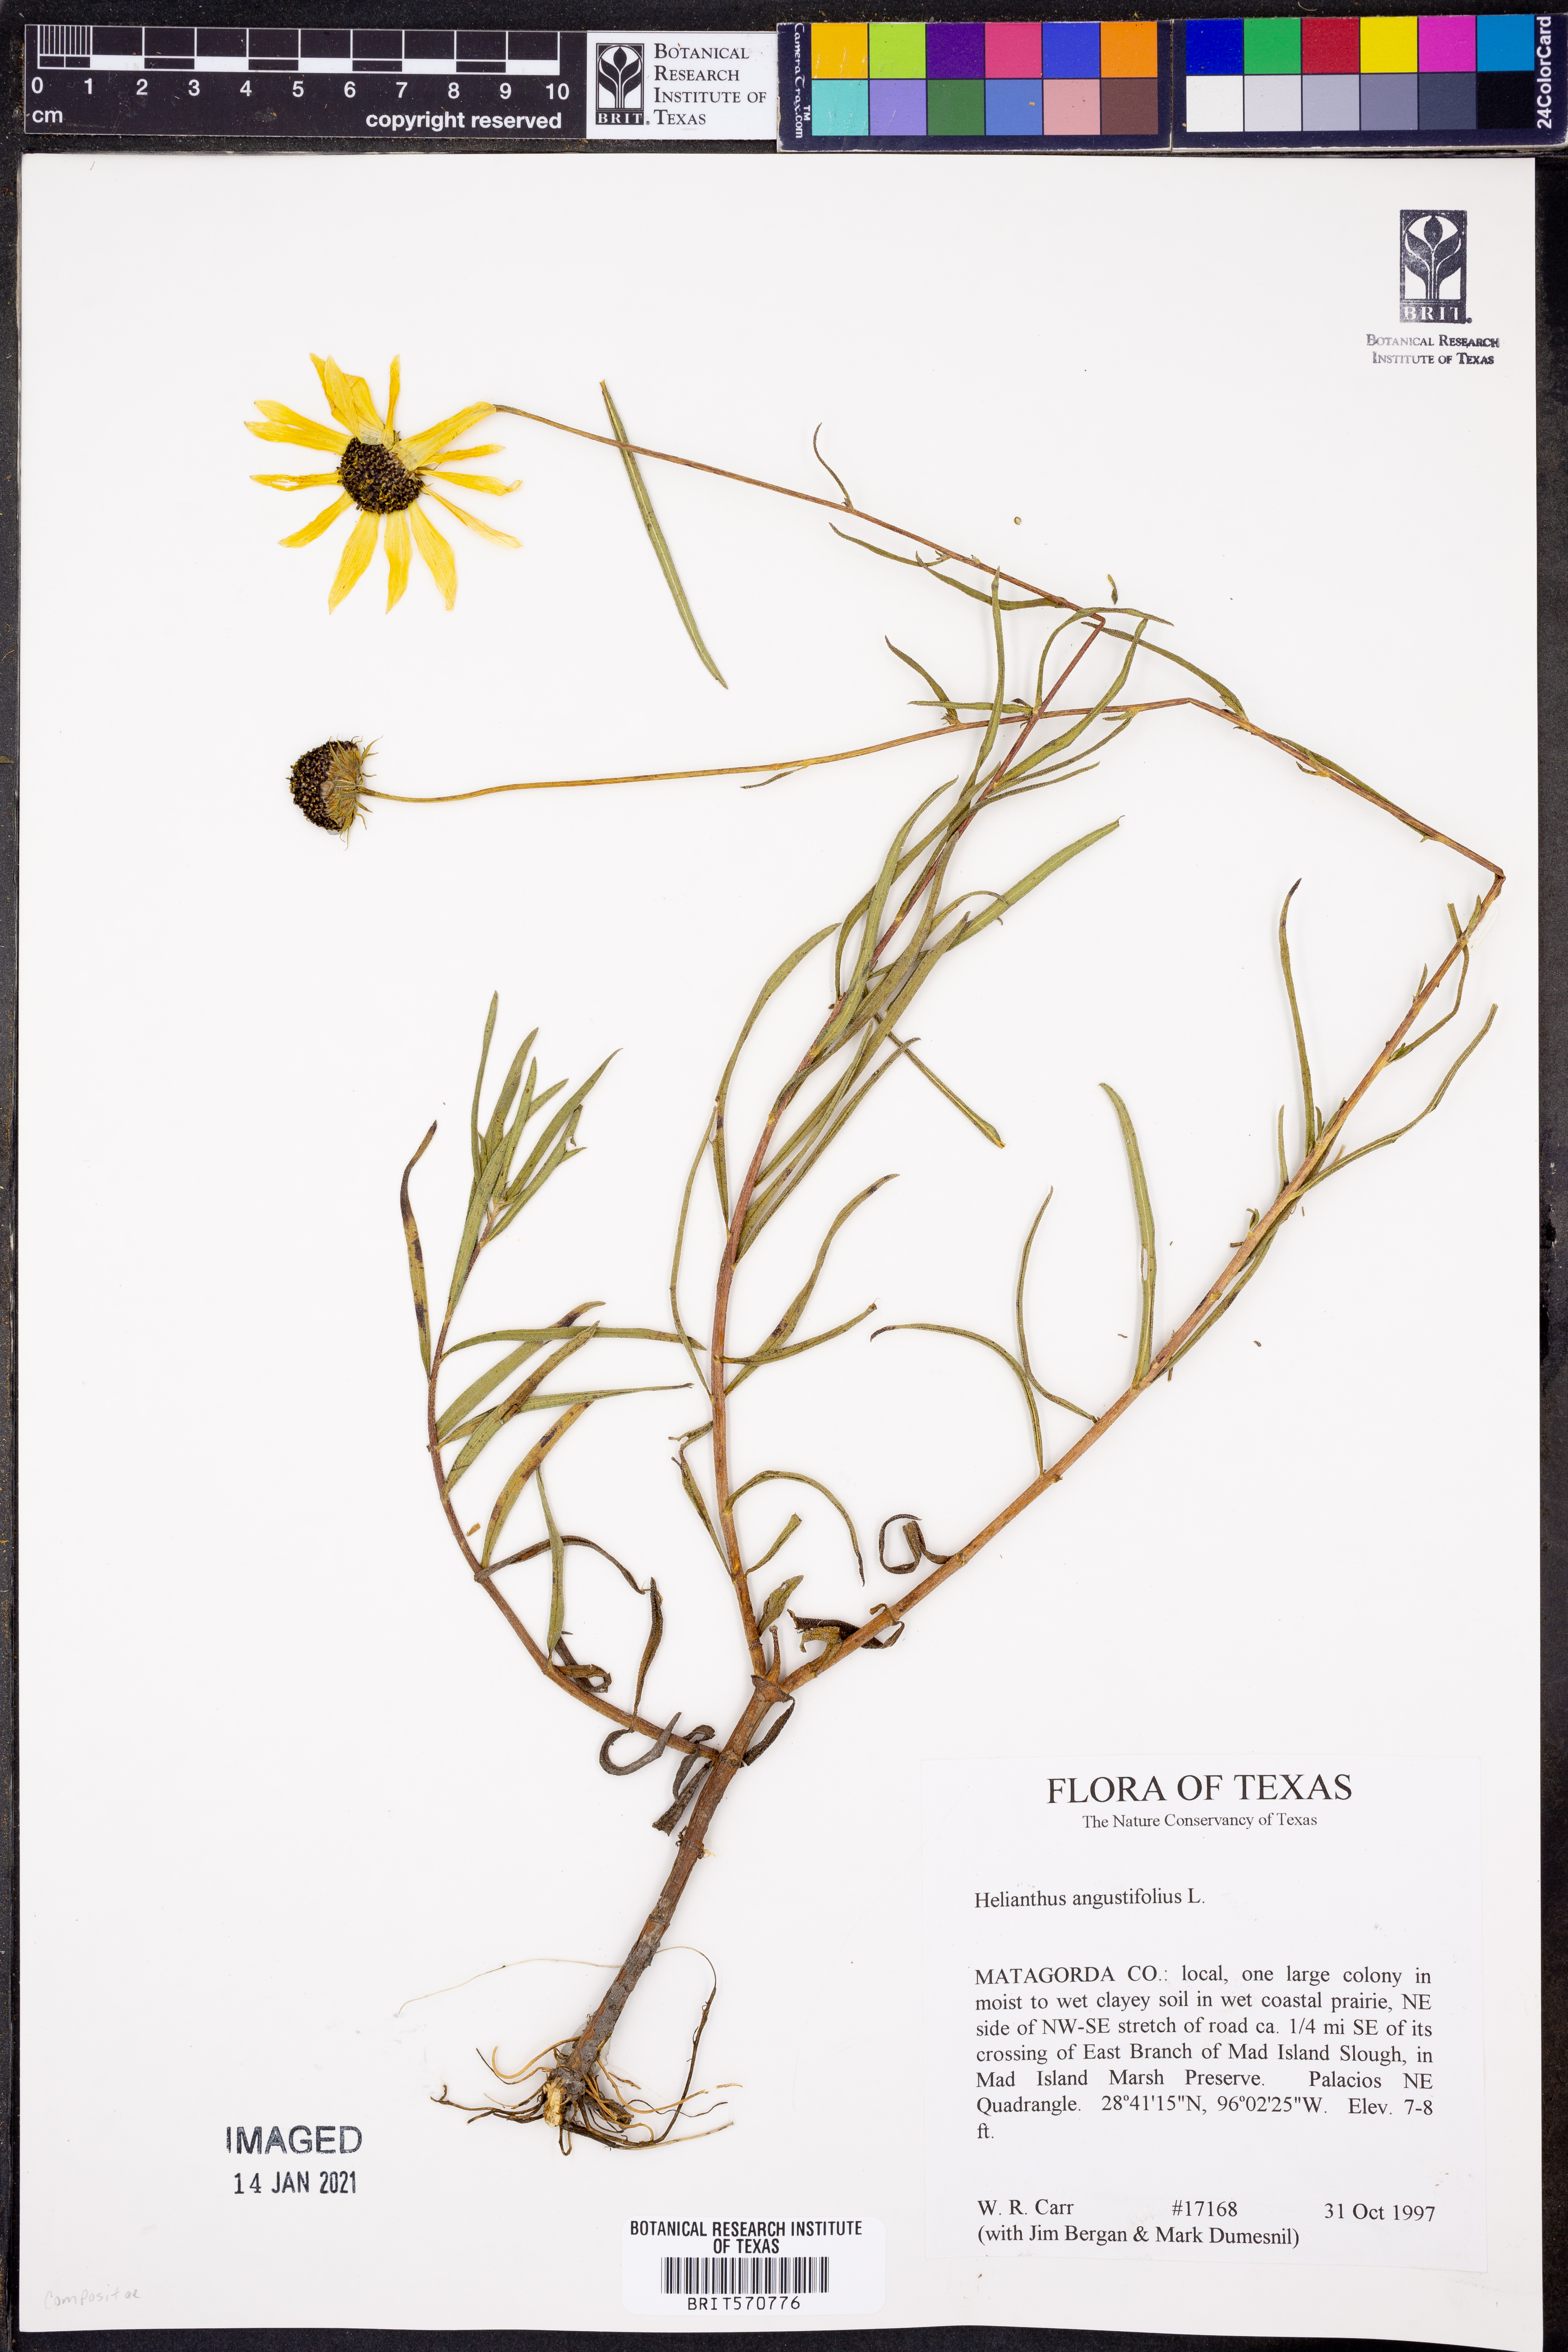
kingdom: Plantae
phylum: Tracheophyta
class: Magnoliopsida
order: Asterales
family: Asteraceae
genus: Helianthus
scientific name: Helianthus angustifolius
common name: Swamp sunflower
